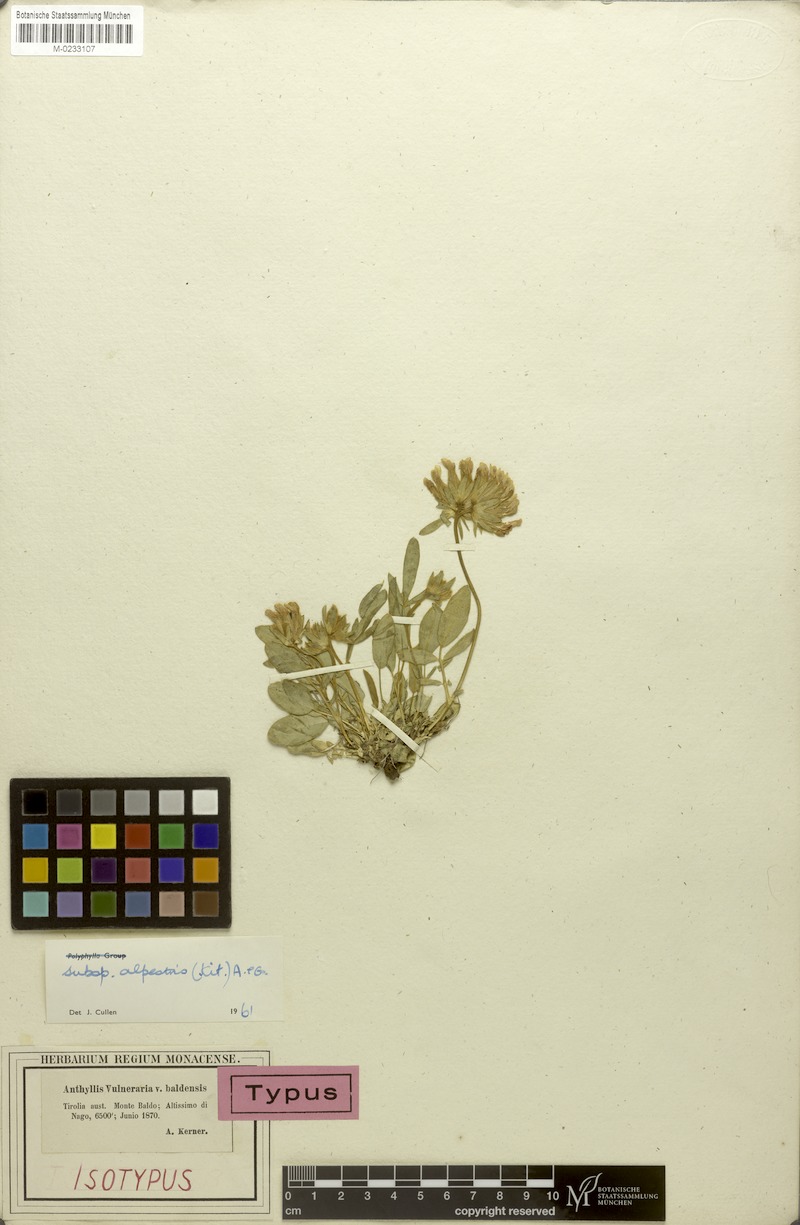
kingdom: Plantae
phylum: Tracheophyta
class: Magnoliopsida
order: Fabales
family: Fabaceae
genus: Anthyllis
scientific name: Anthyllis vulneraria
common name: Kidney vetch
